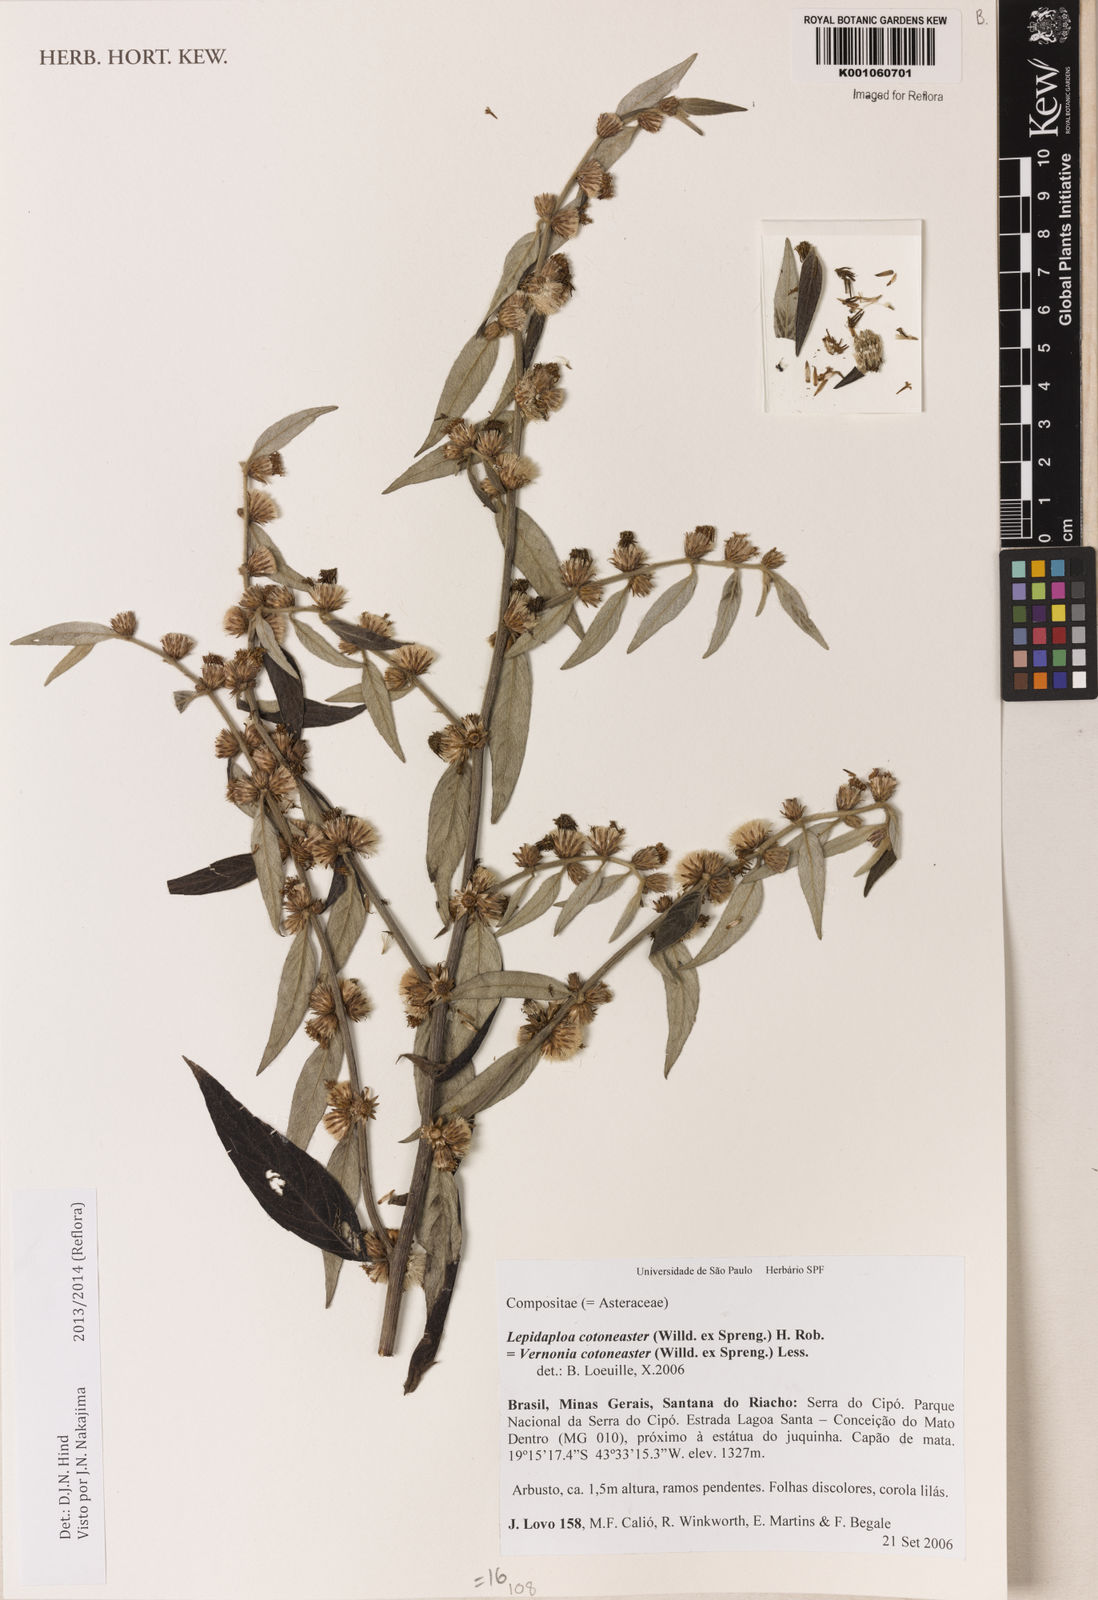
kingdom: Plantae
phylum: Tracheophyta
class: Magnoliopsida
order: Asterales
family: Asteraceae
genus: Lepidaploa
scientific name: Lepidaploa cotoneaster
